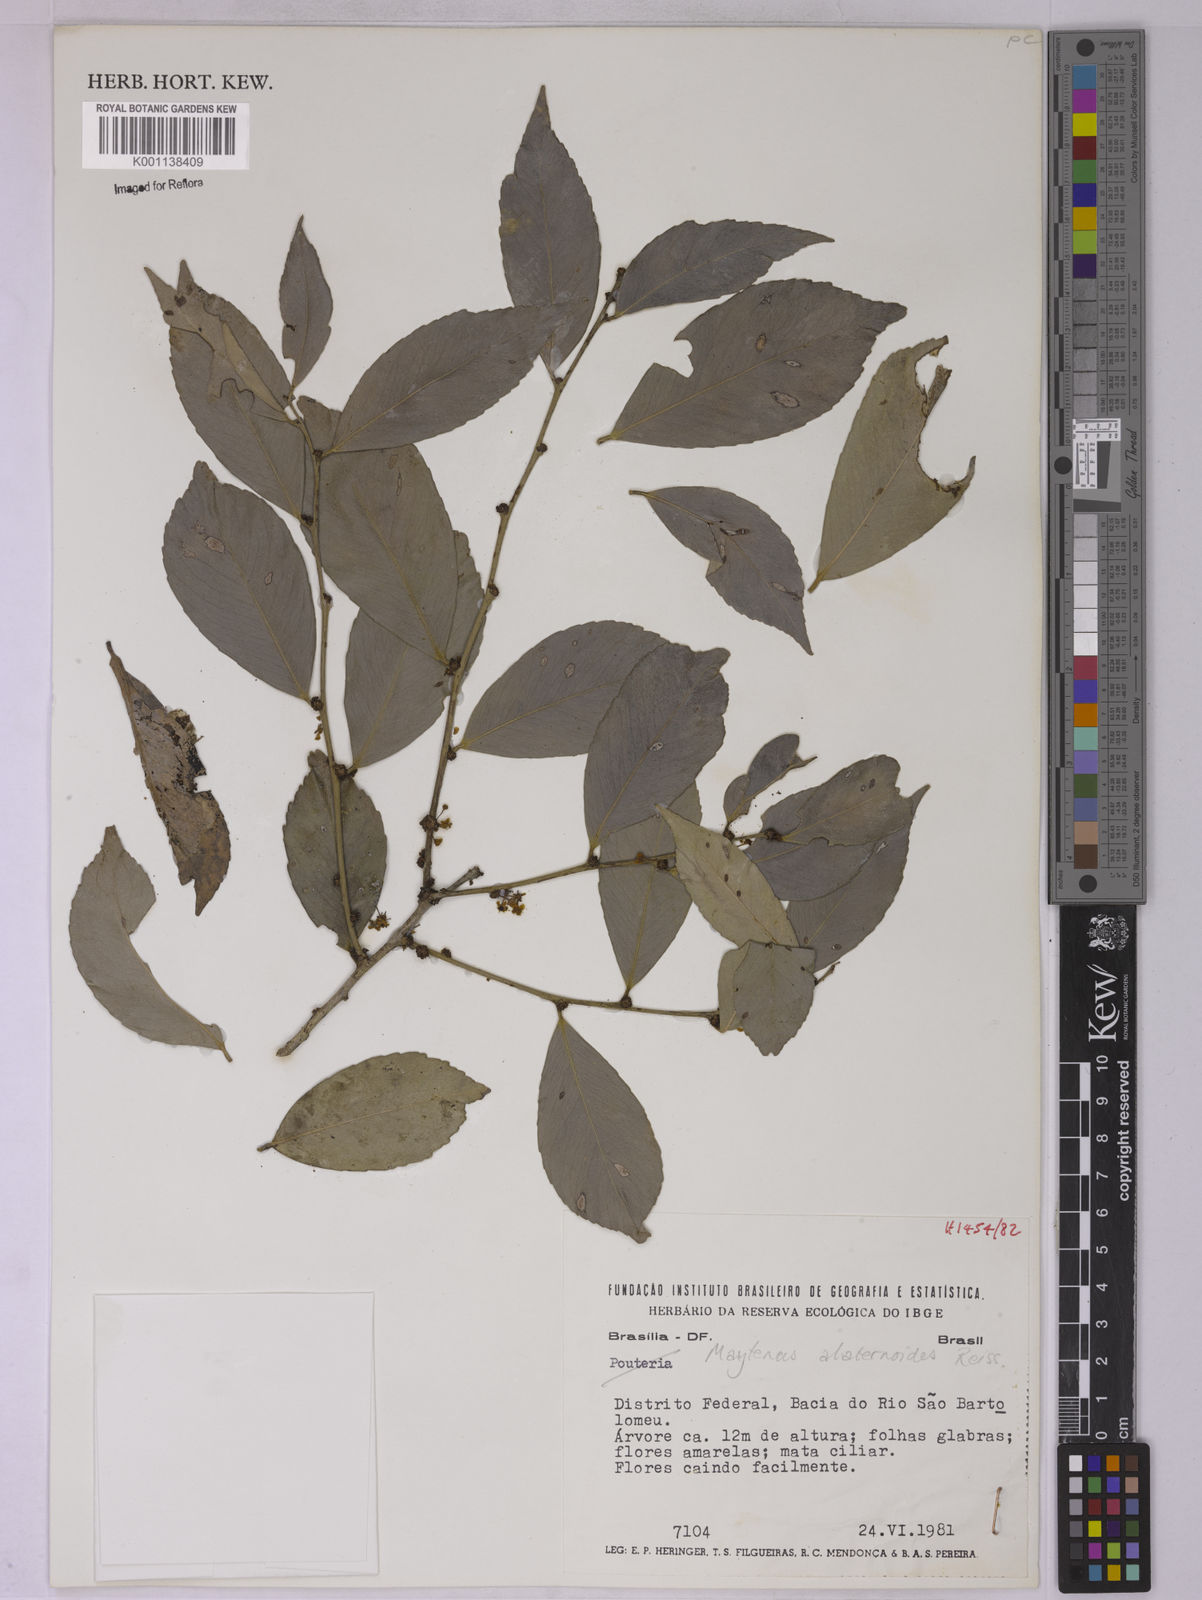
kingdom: Plantae
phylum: Tracheophyta
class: Magnoliopsida
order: Celastrales
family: Celastraceae
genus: Maytenus
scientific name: Maytenus alaternoides
